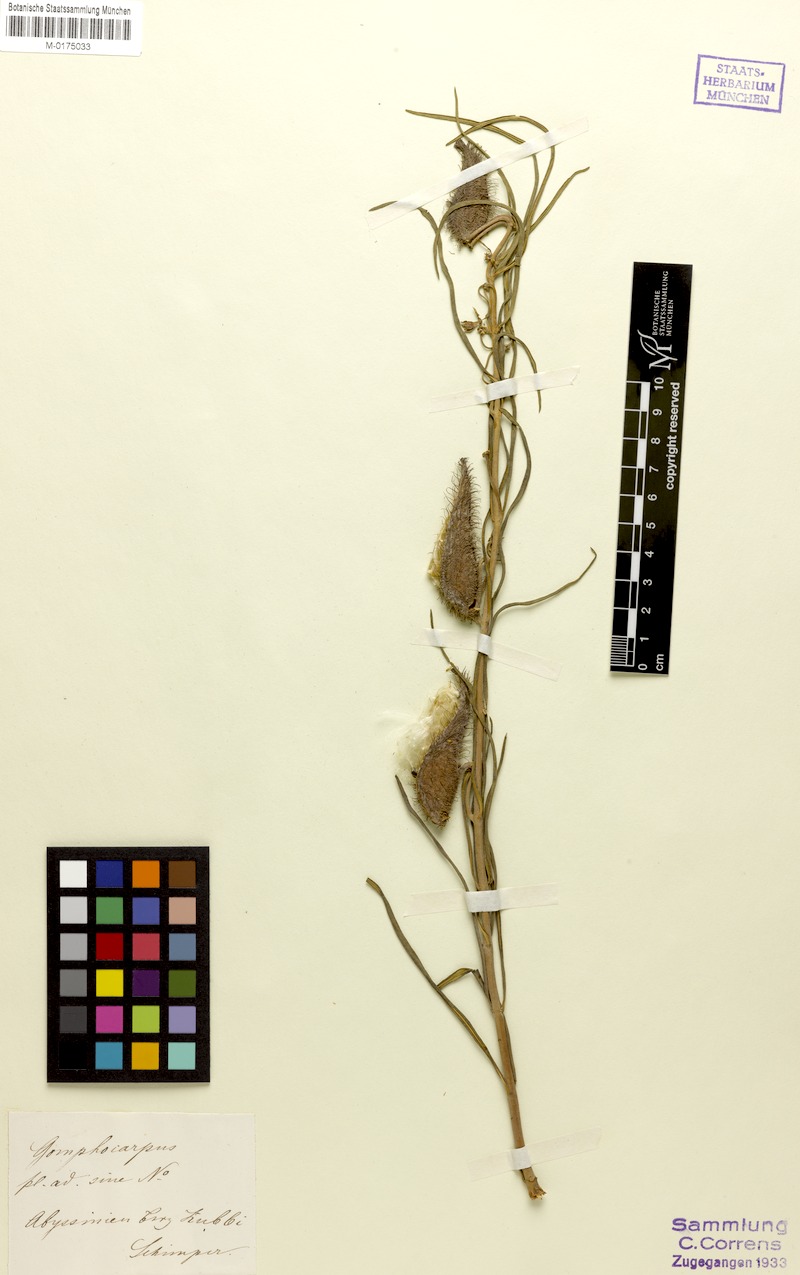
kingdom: Plantae
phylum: Tracheophyta
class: Magnoliopsida
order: Gentianales
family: Apocynaceae
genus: Asclepias
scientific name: Asclepias
